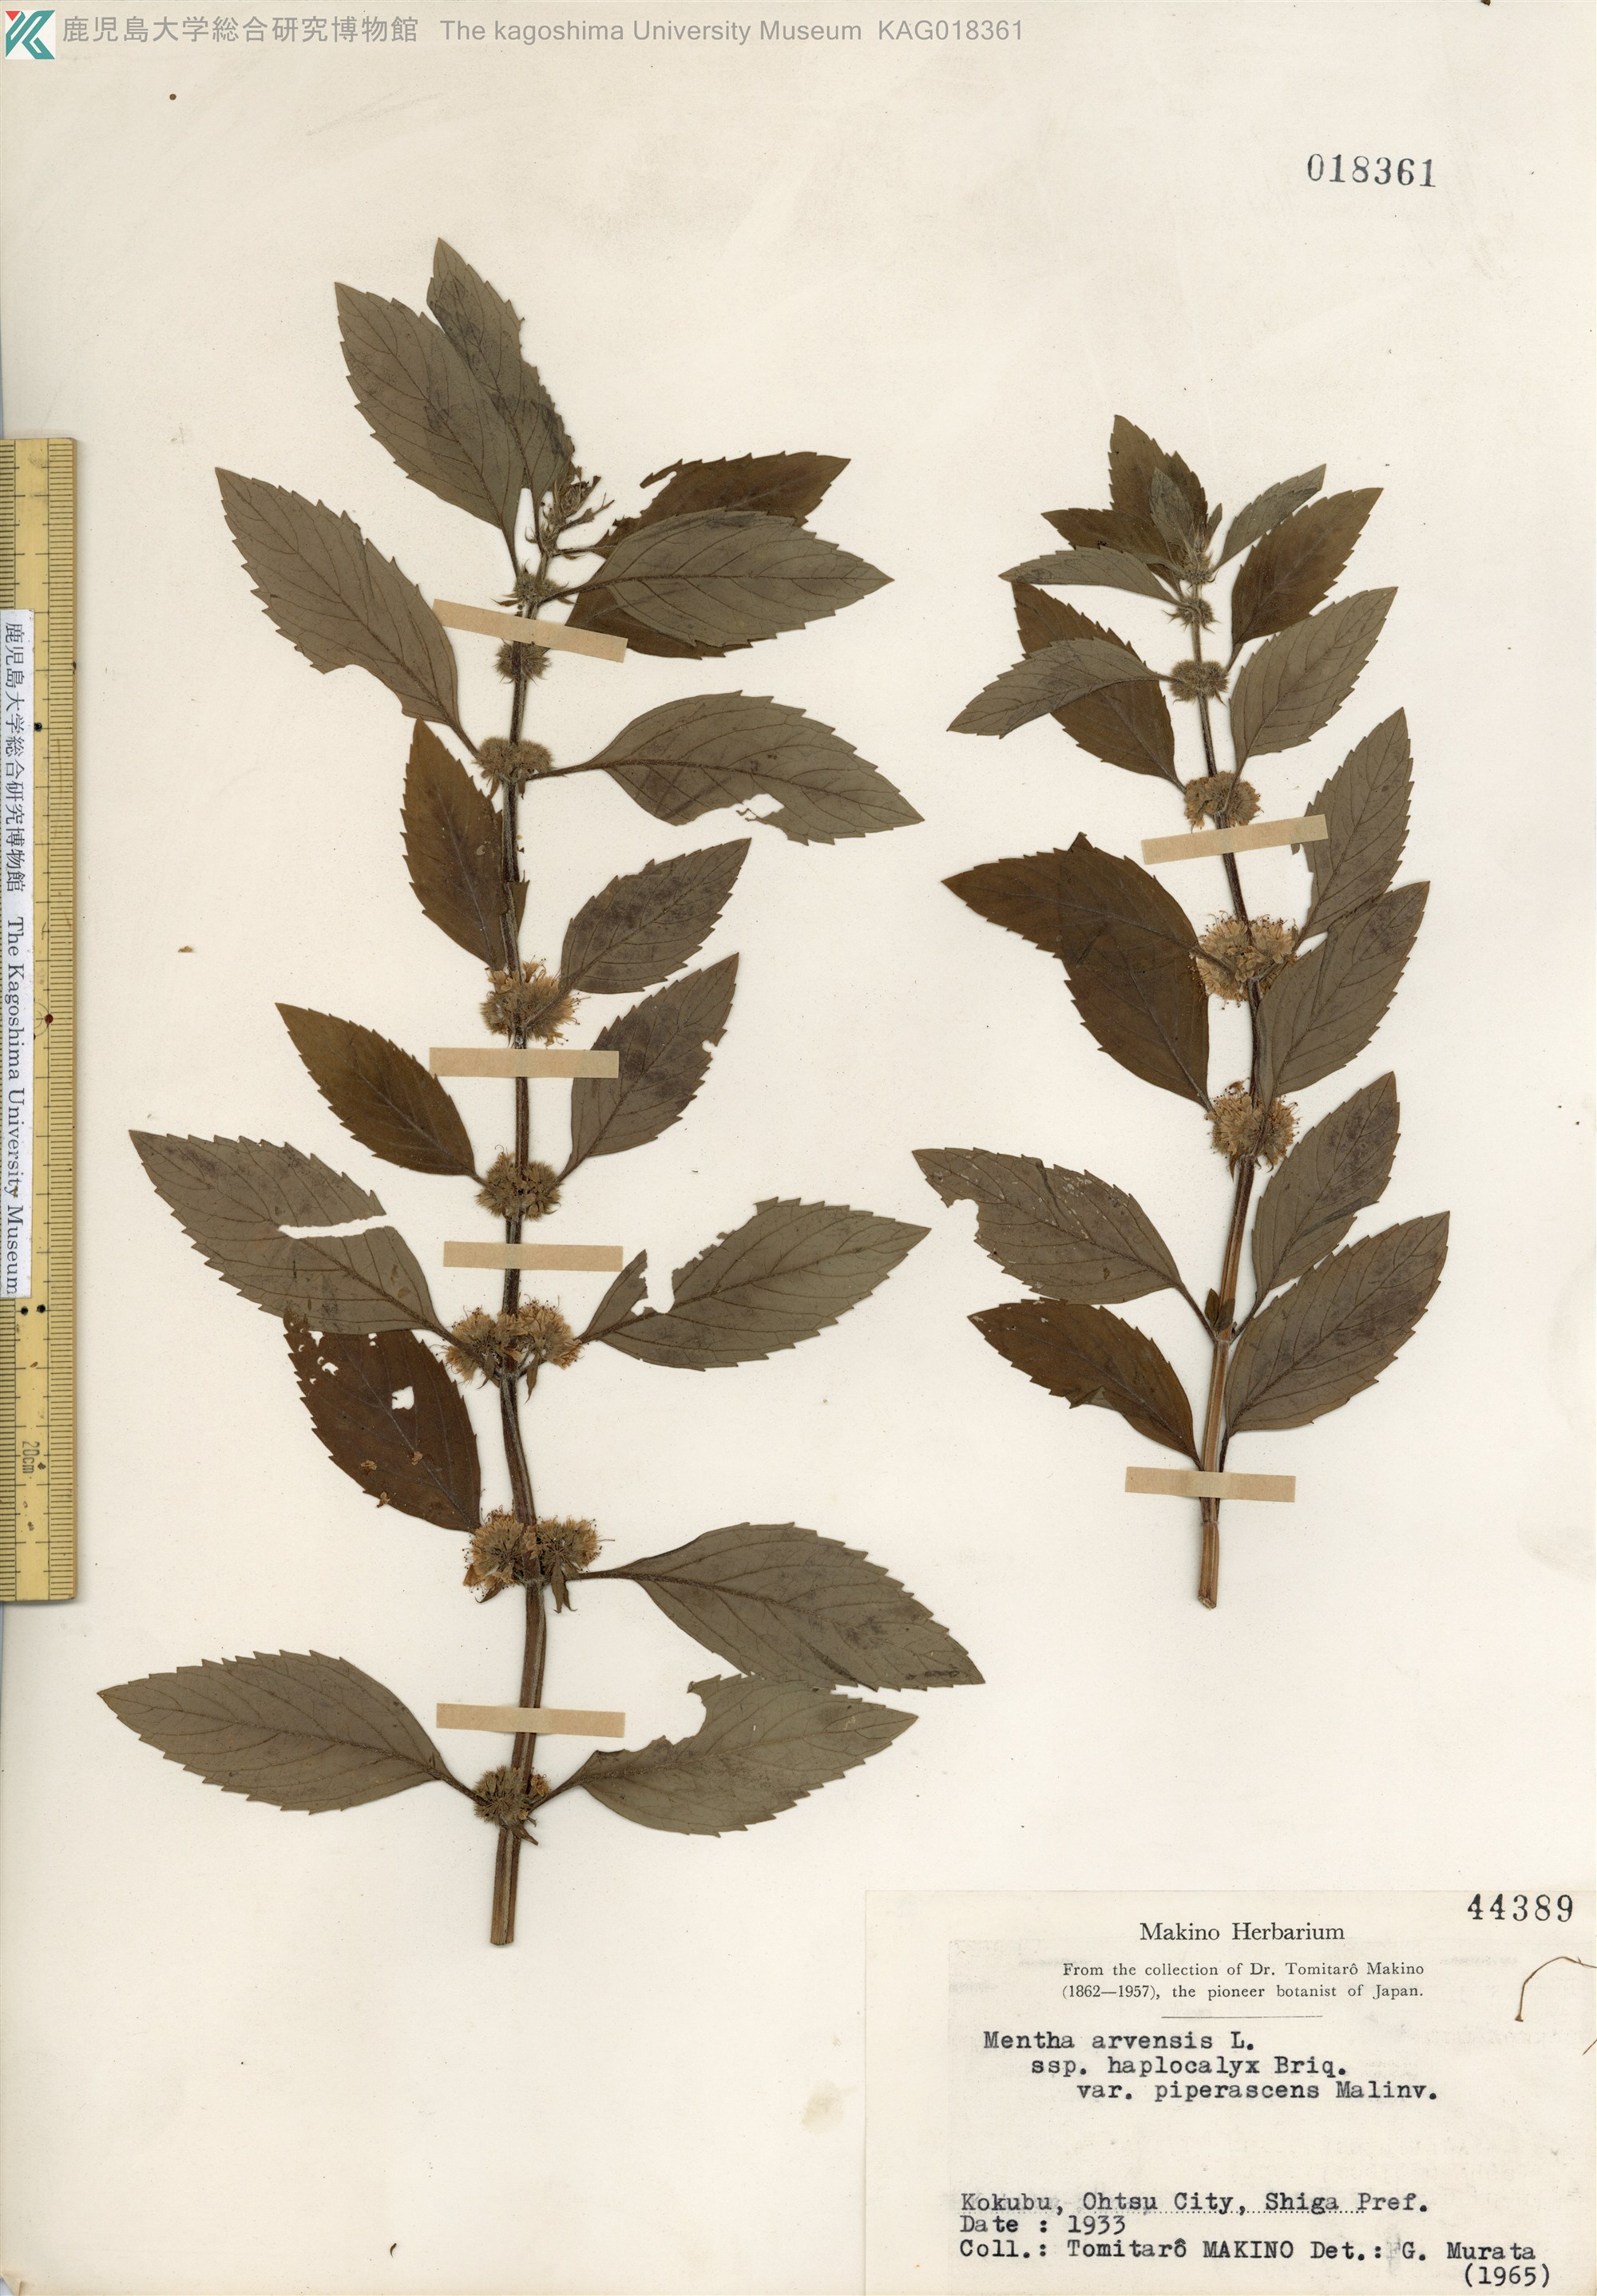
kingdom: Plantae
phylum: Tracheophyta
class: Magnoliopsida
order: Lamiales
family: Lamiaceae
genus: Mentha
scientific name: Mentha canadensis
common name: ハッカ
